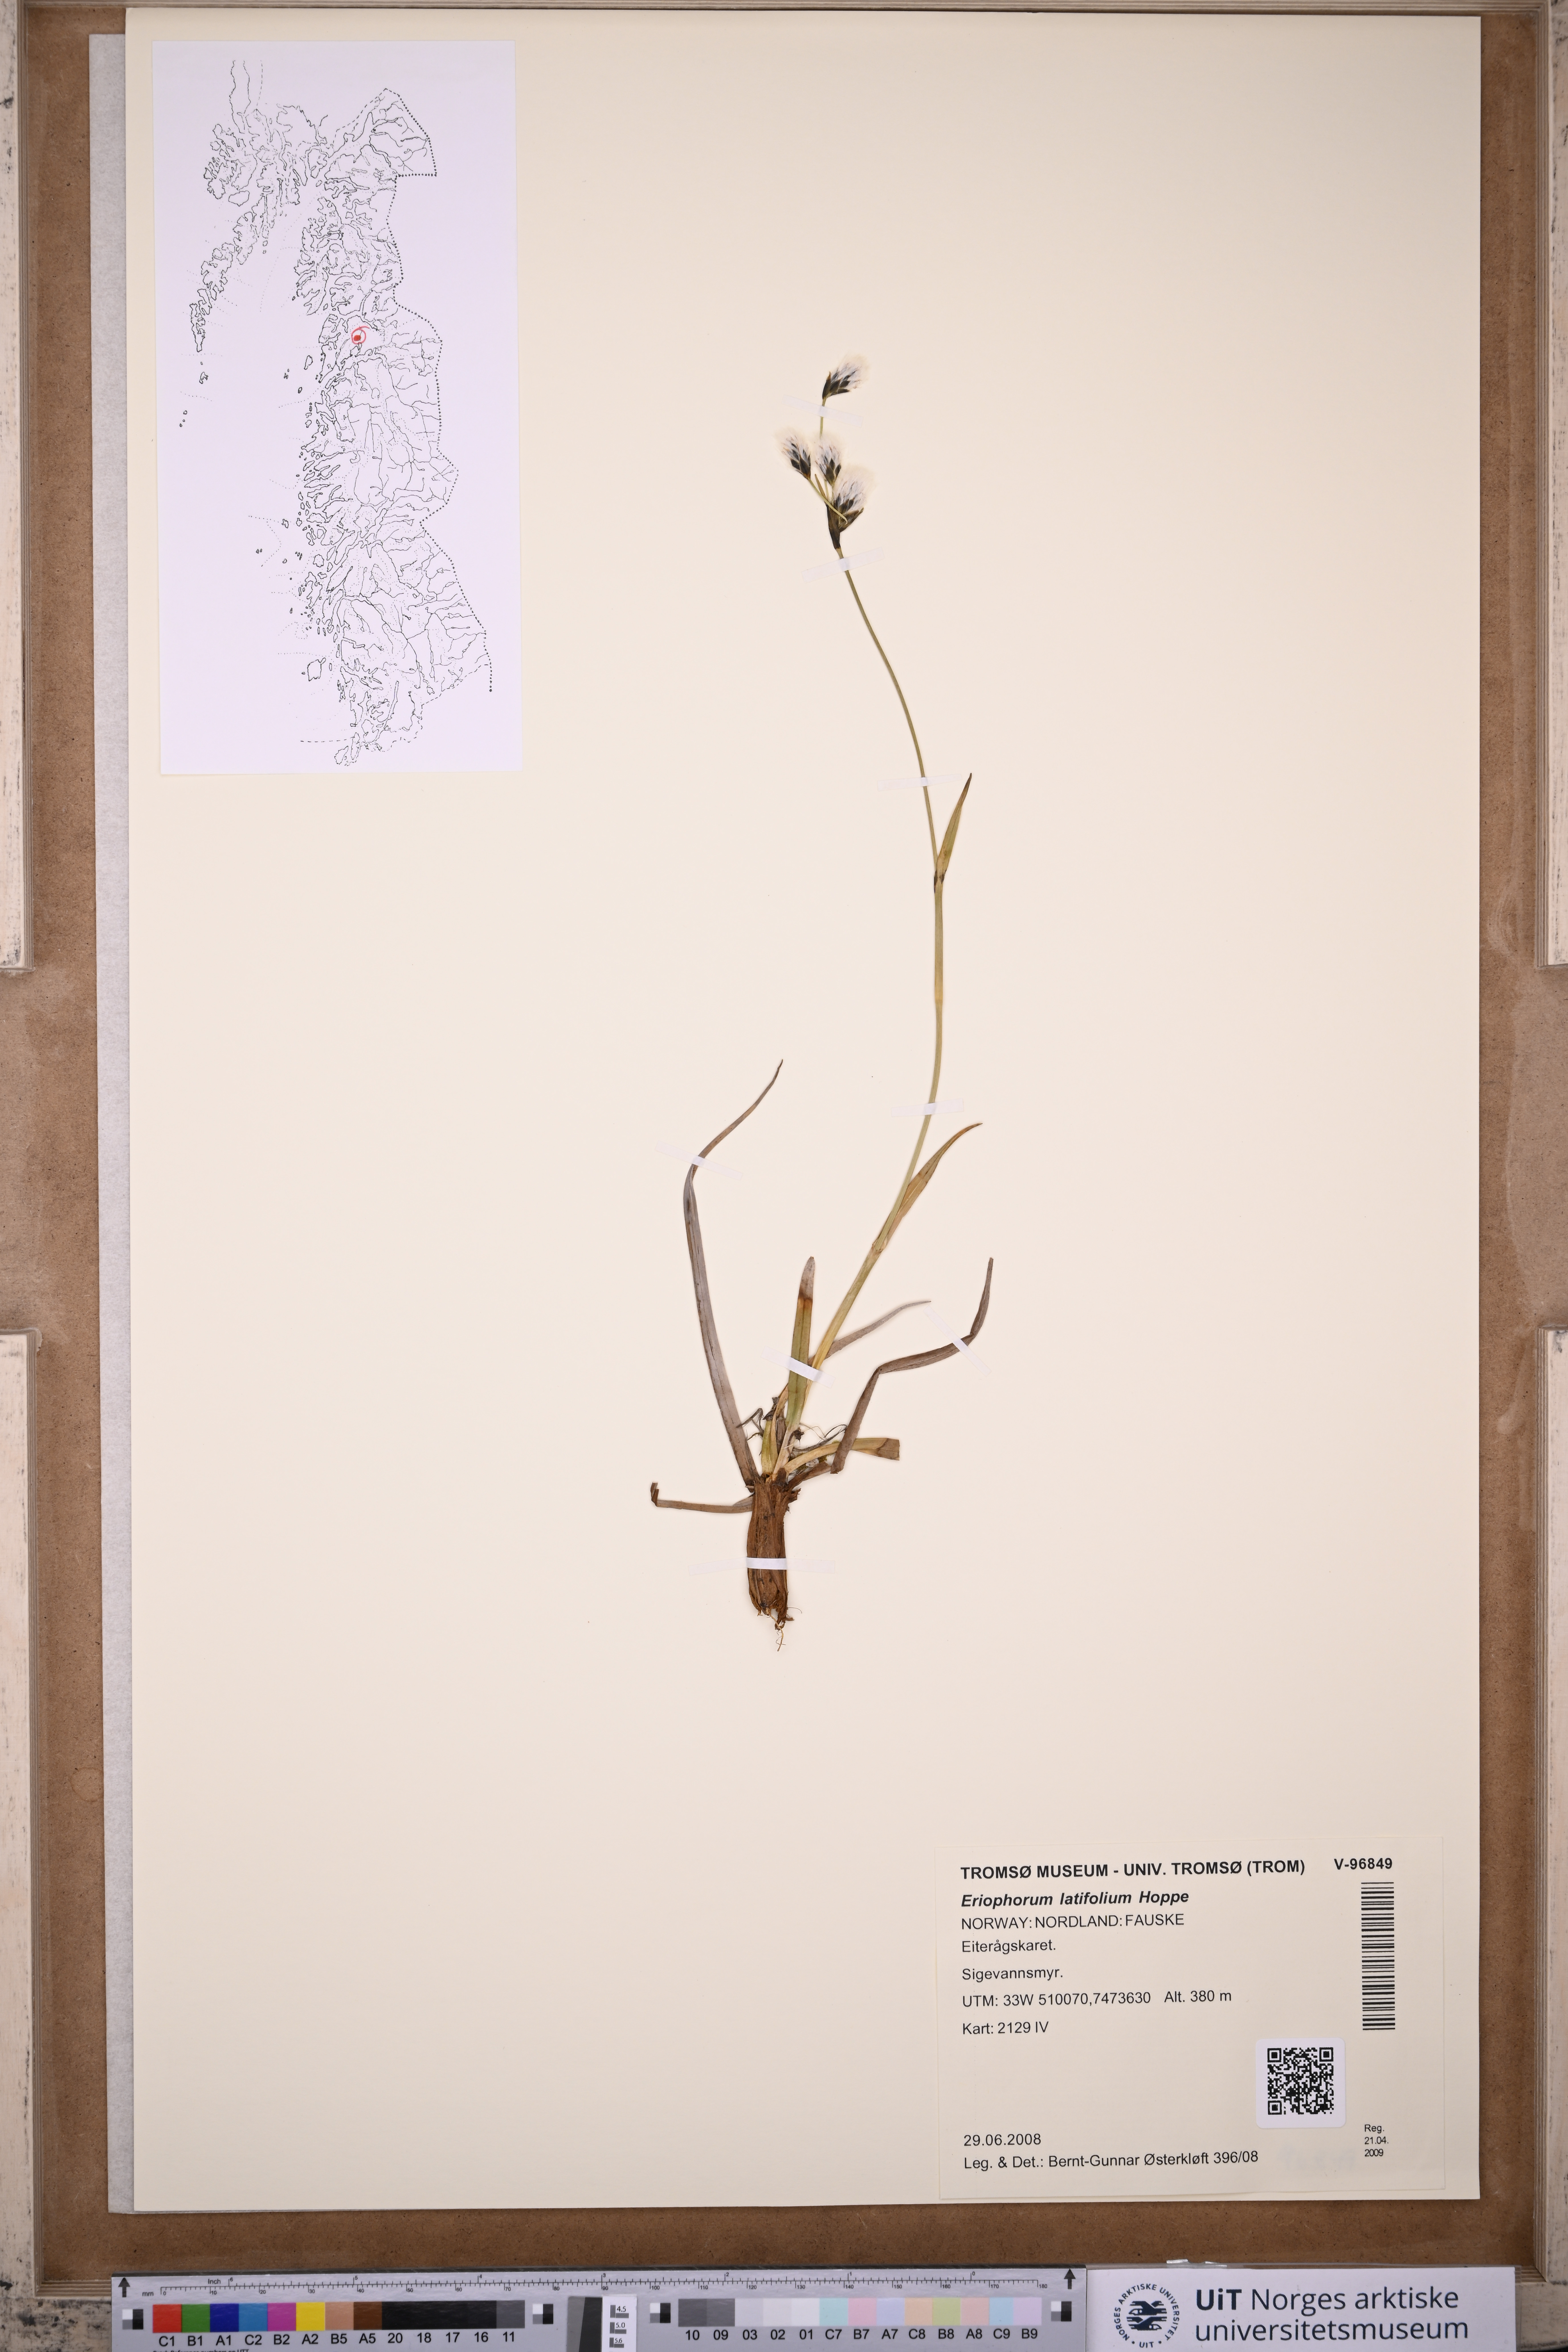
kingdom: Plantae
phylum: Tracheophyta
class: Liliopsida
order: Poales
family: Cyperaceae
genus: Eriophorum
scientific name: Eriophorum latifolium
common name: Broad-leaved cottongrass
